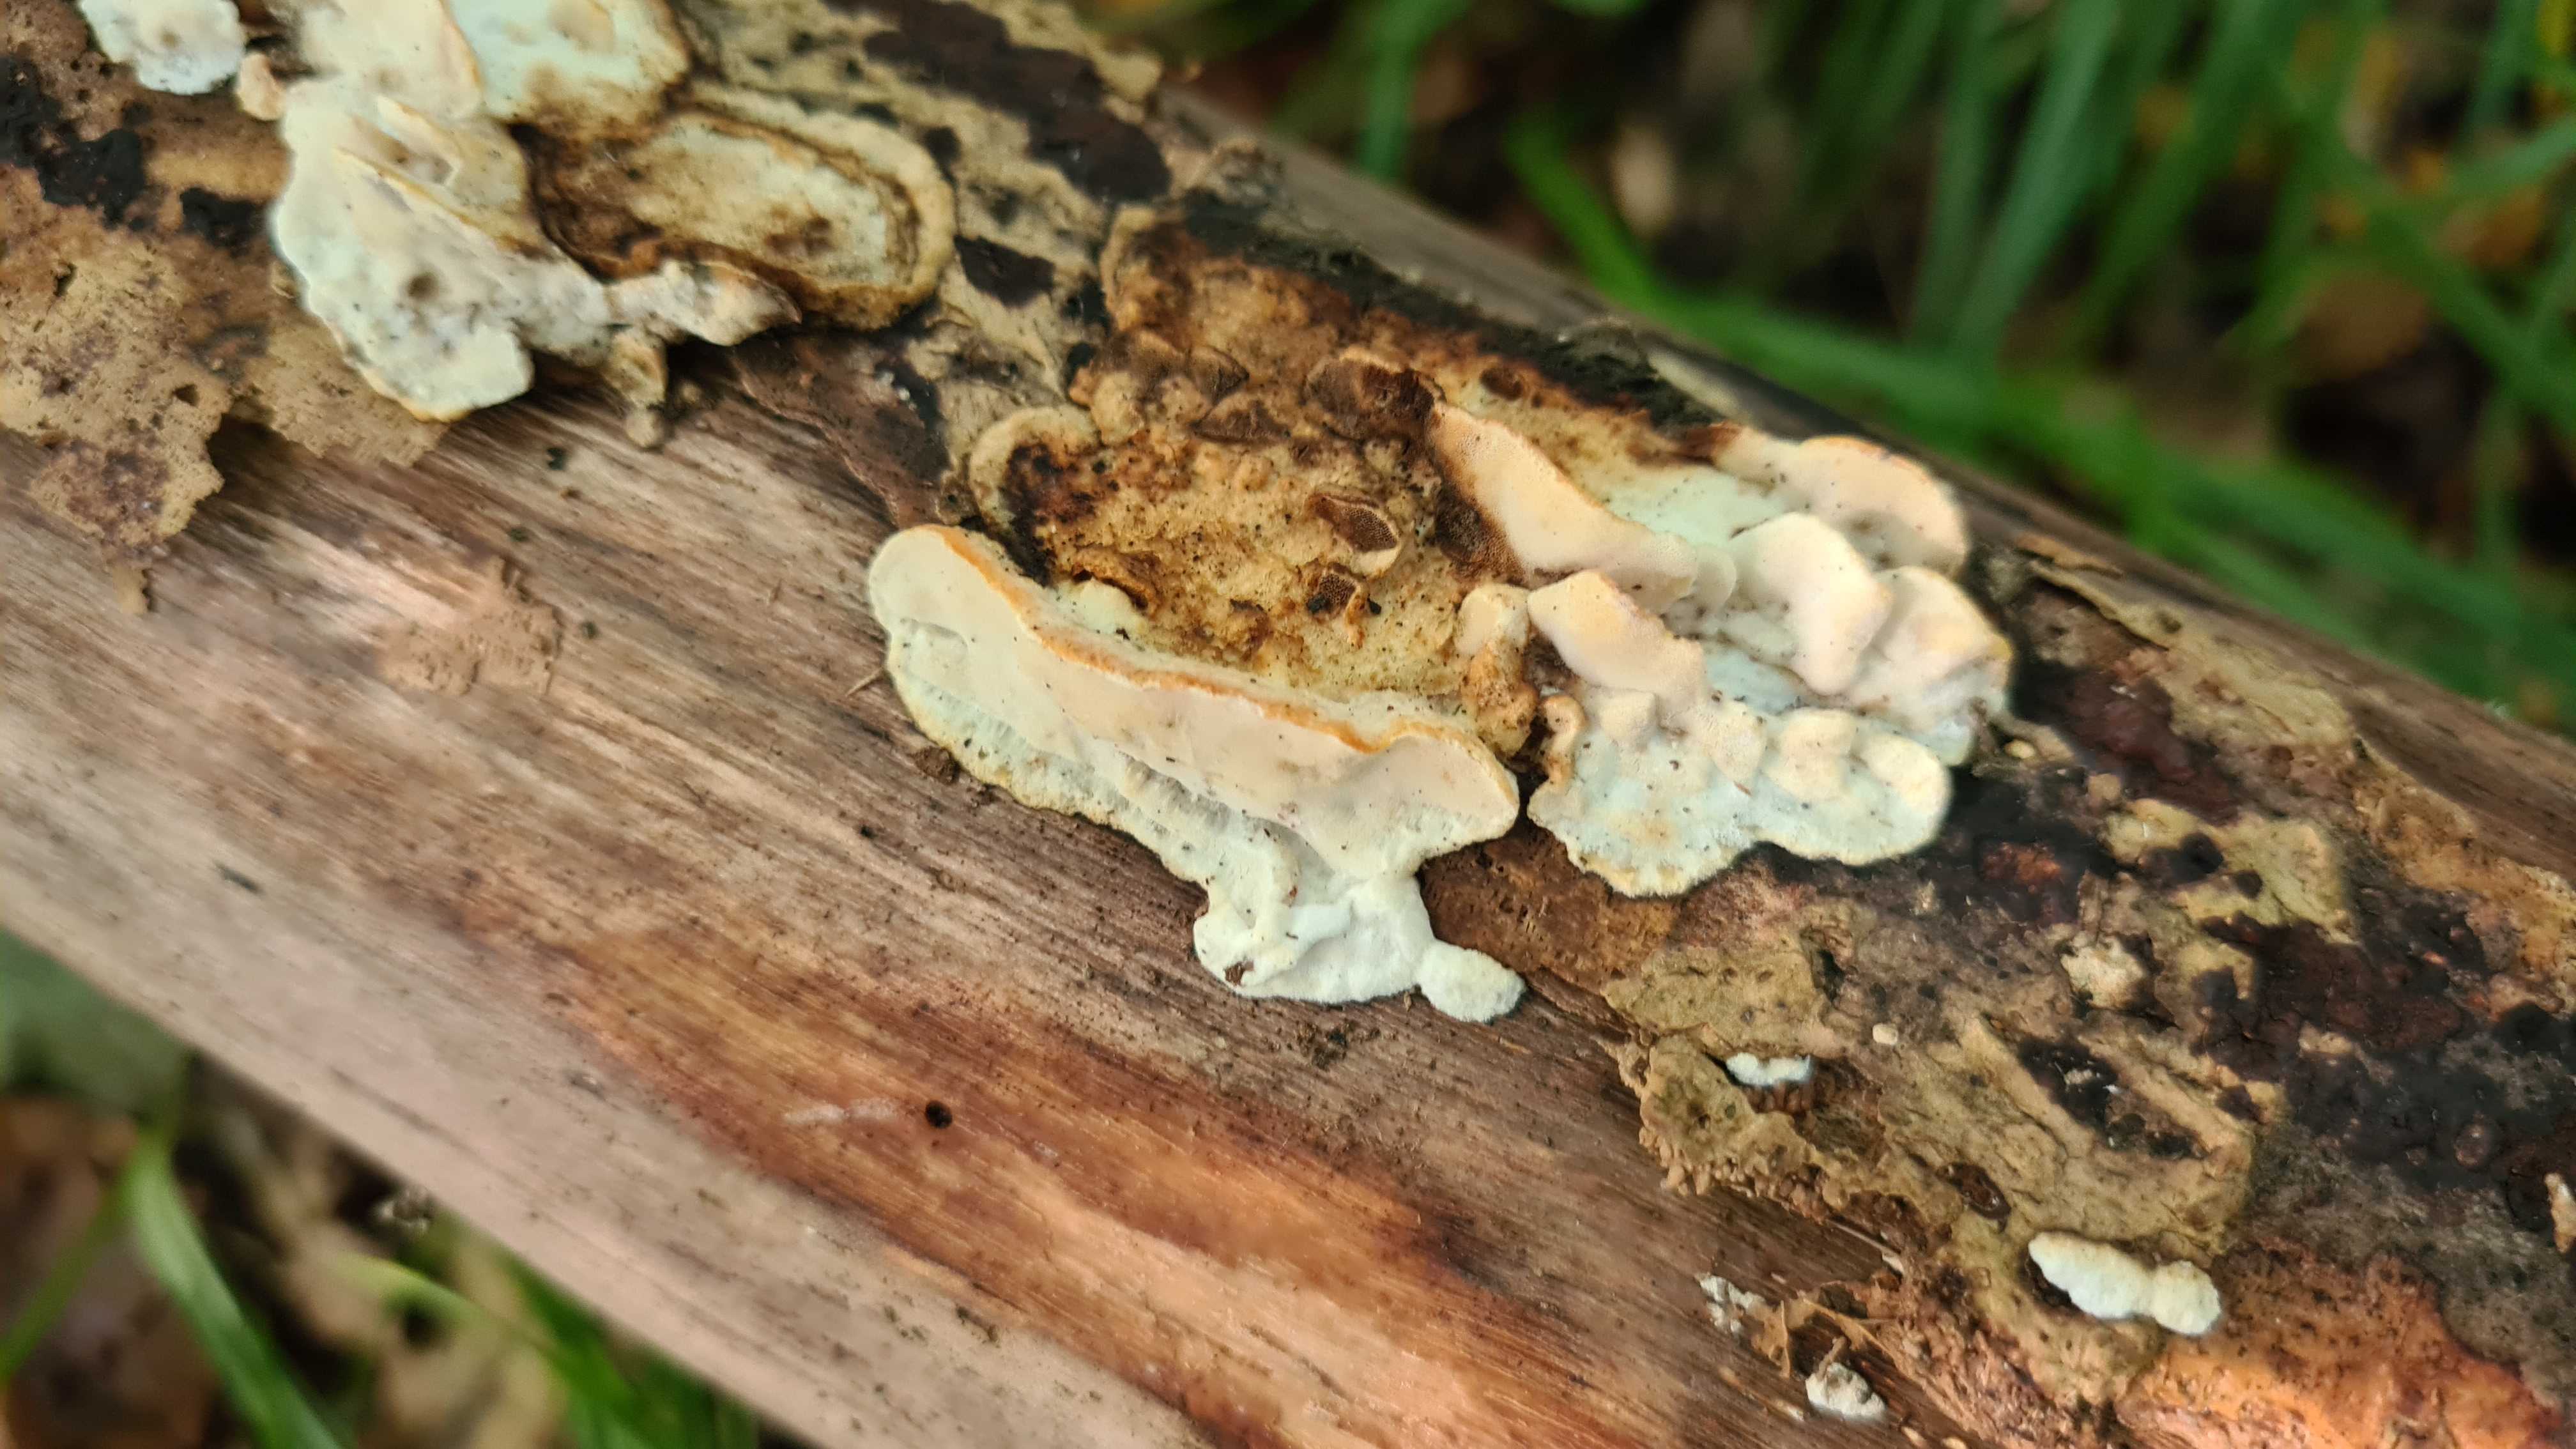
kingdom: Fungi
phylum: Basidiomycota
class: Agaricomycetes
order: Polyporales
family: Incrustoporiaceae
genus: Skeletocutis
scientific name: Skeletocutis nemoralis
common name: stor krystalporesvamp
